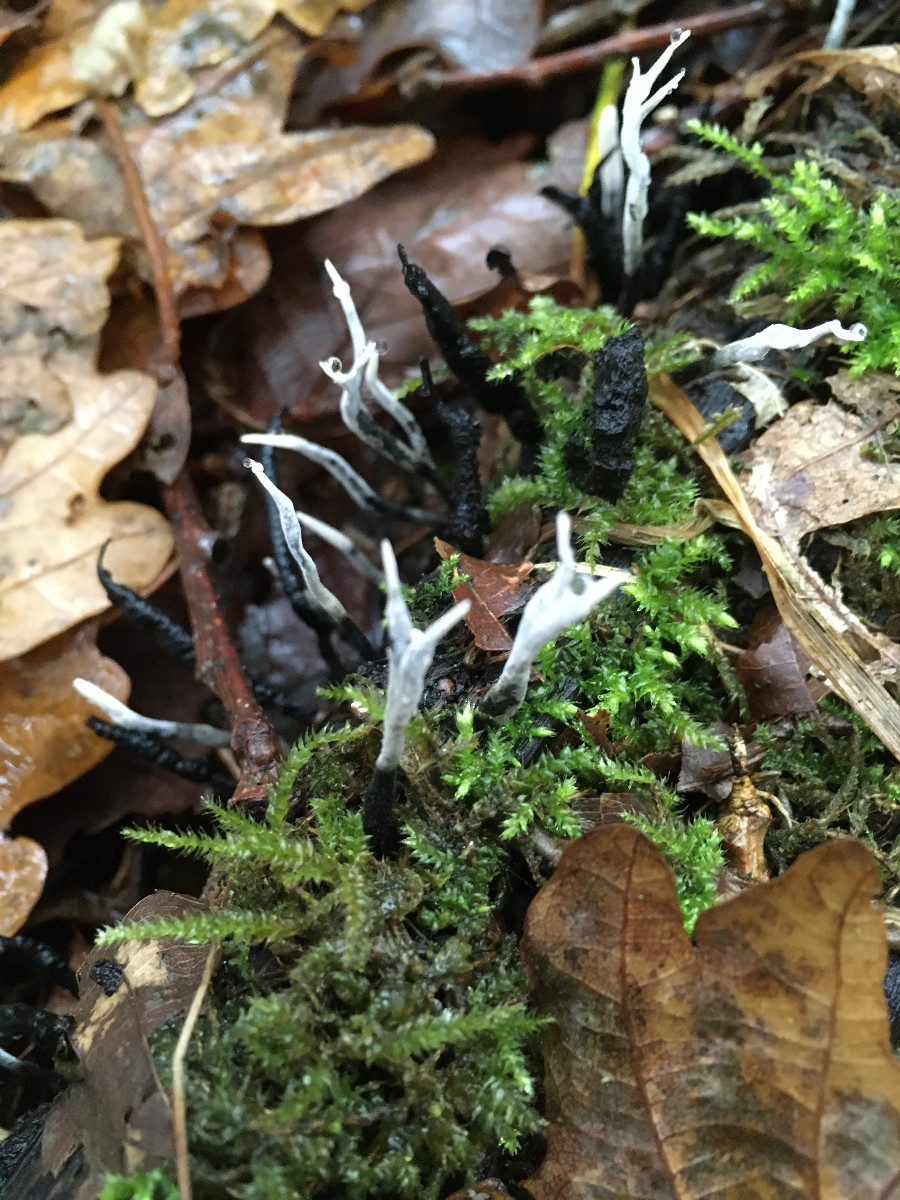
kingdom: Fungi
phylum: Ascomycota
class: Sordariomycetes
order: Xylariales
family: Xylariaceae
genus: Xylaria
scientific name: Xylaria hypoxylon
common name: grenet stødsvamp
